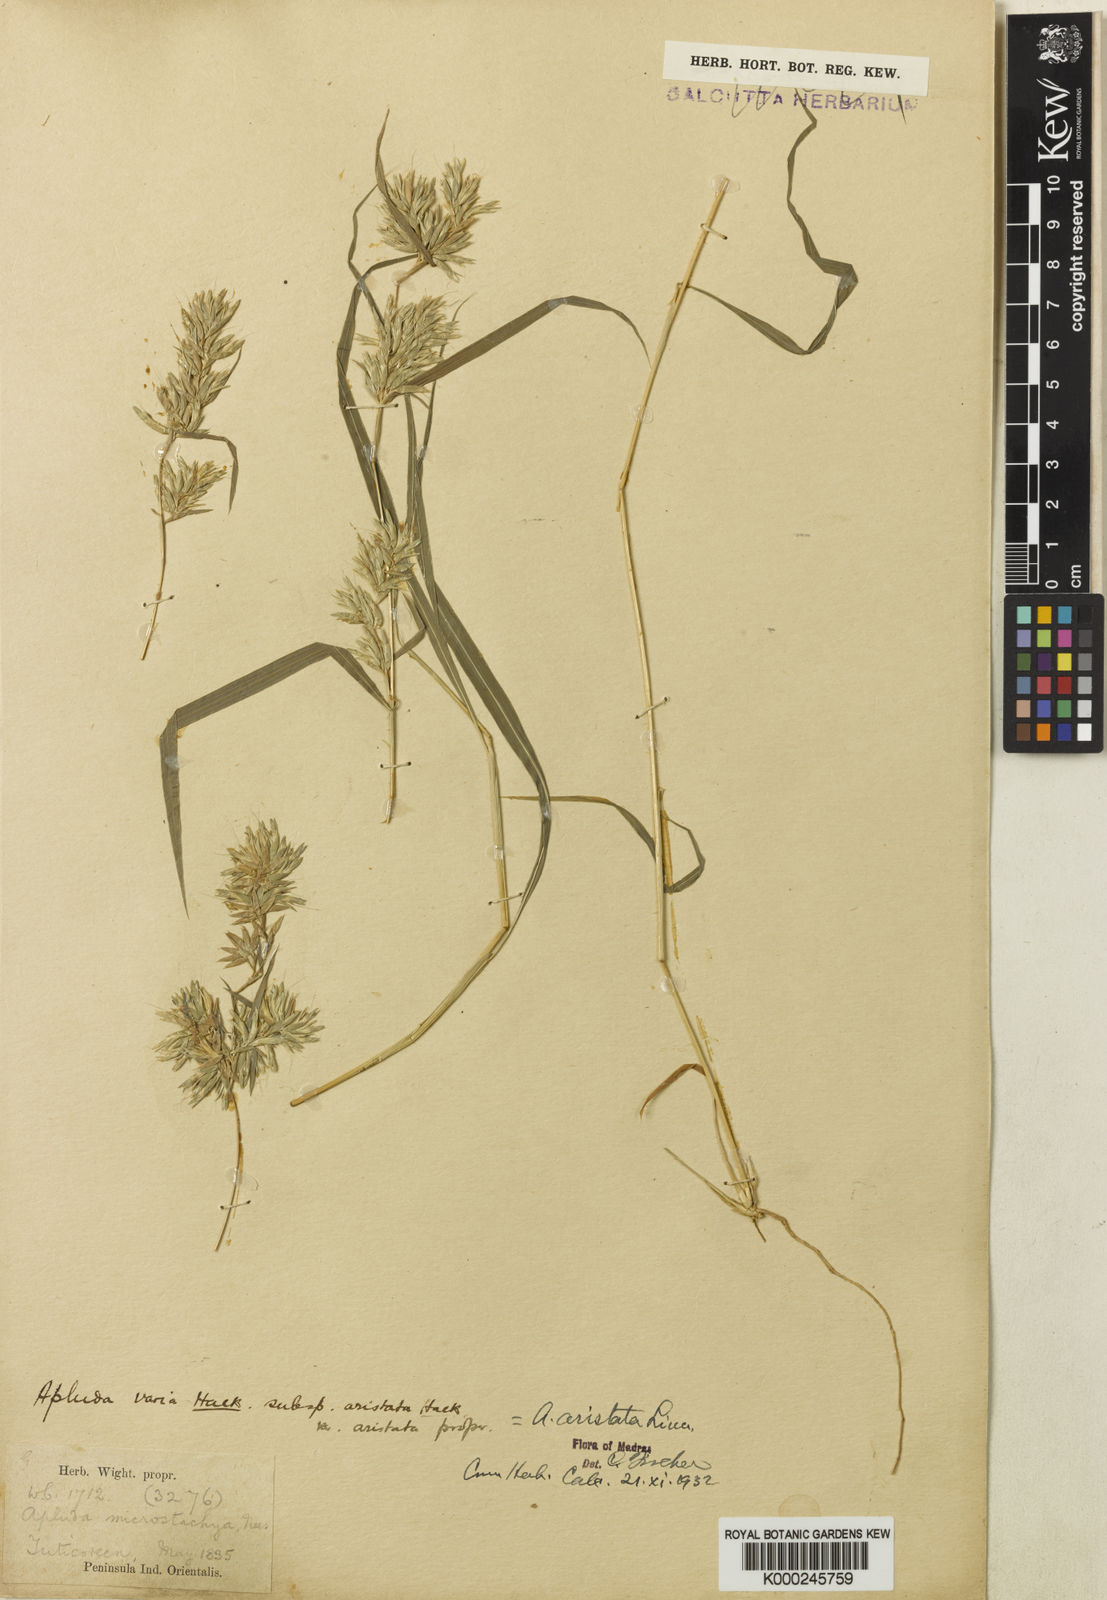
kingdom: Plantae
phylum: Tracheophyta
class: Liliopsida
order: Poales
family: Poaceae
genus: Apluda
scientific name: Apluda mutica
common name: Mauritian grass
